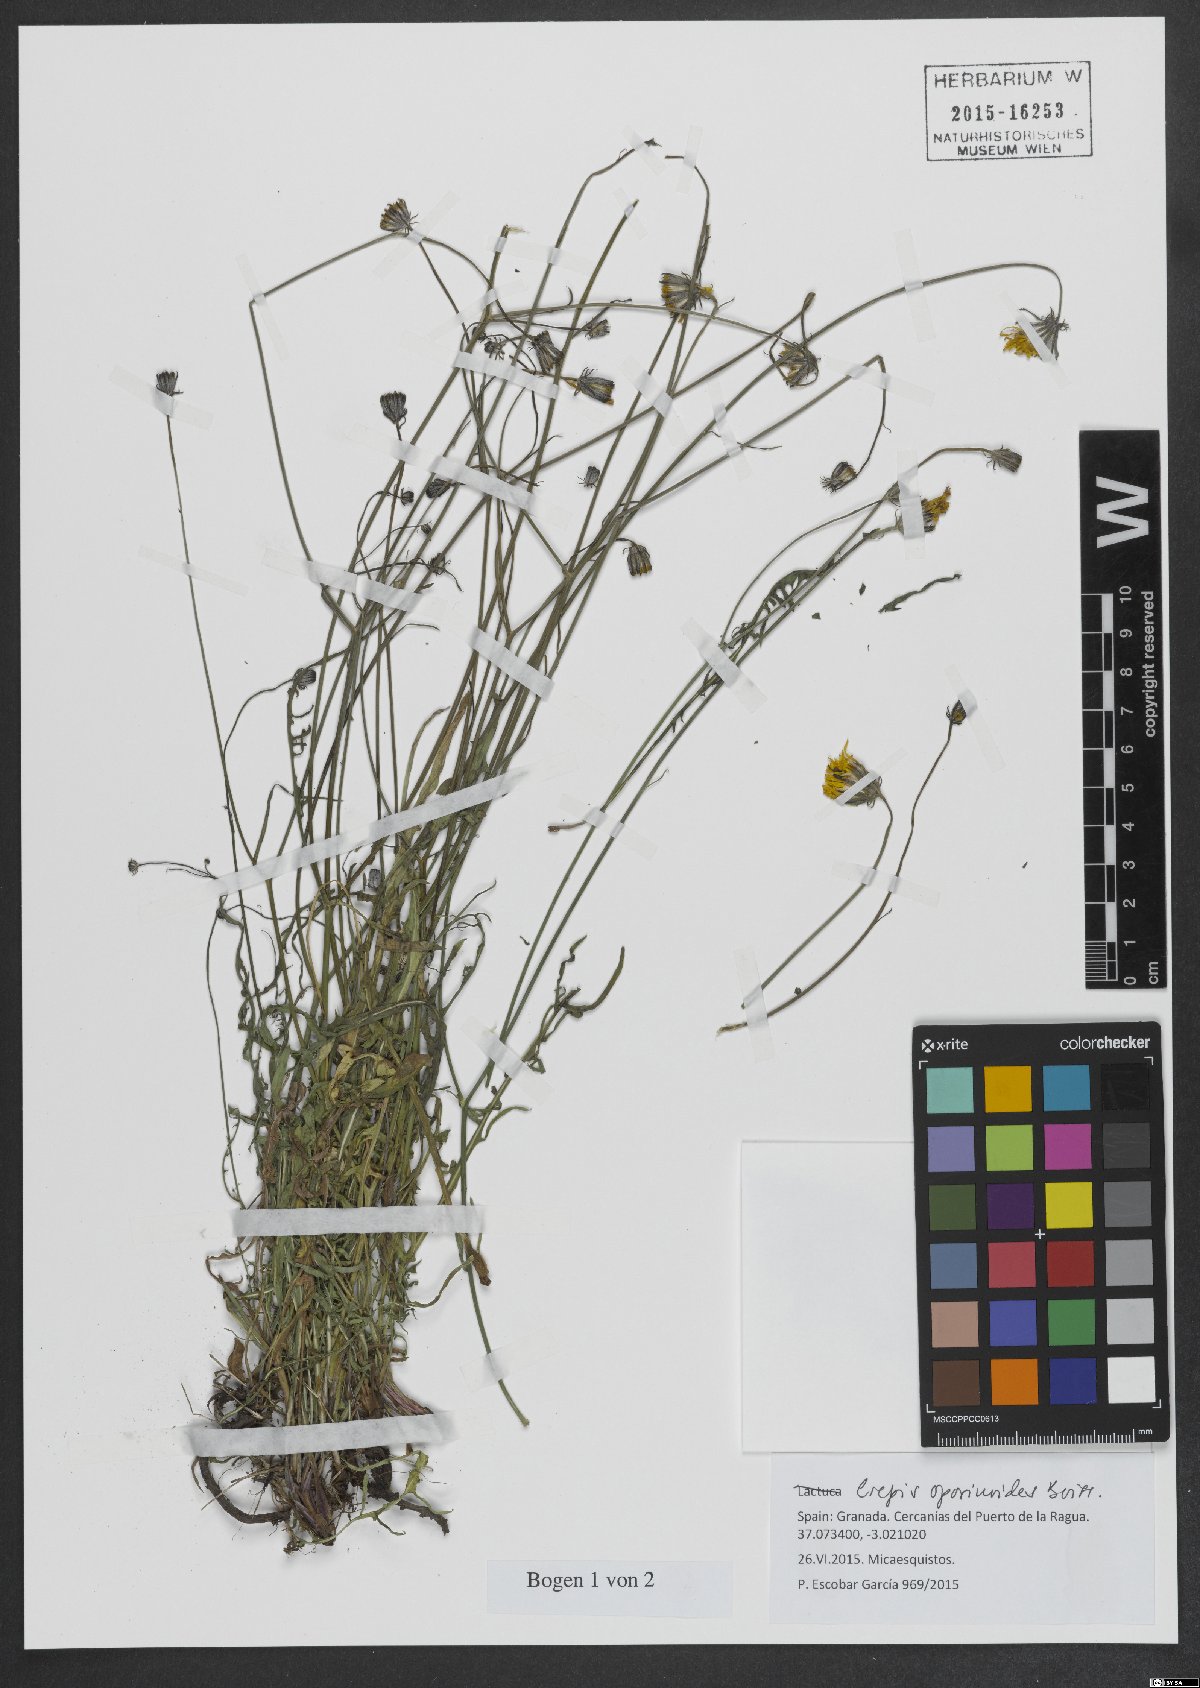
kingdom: Plantae
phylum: Tracheophyta
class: Magnoliopsida
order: Asterales
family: Asteraceae
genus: Crepis
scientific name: Crepis oporinoides
